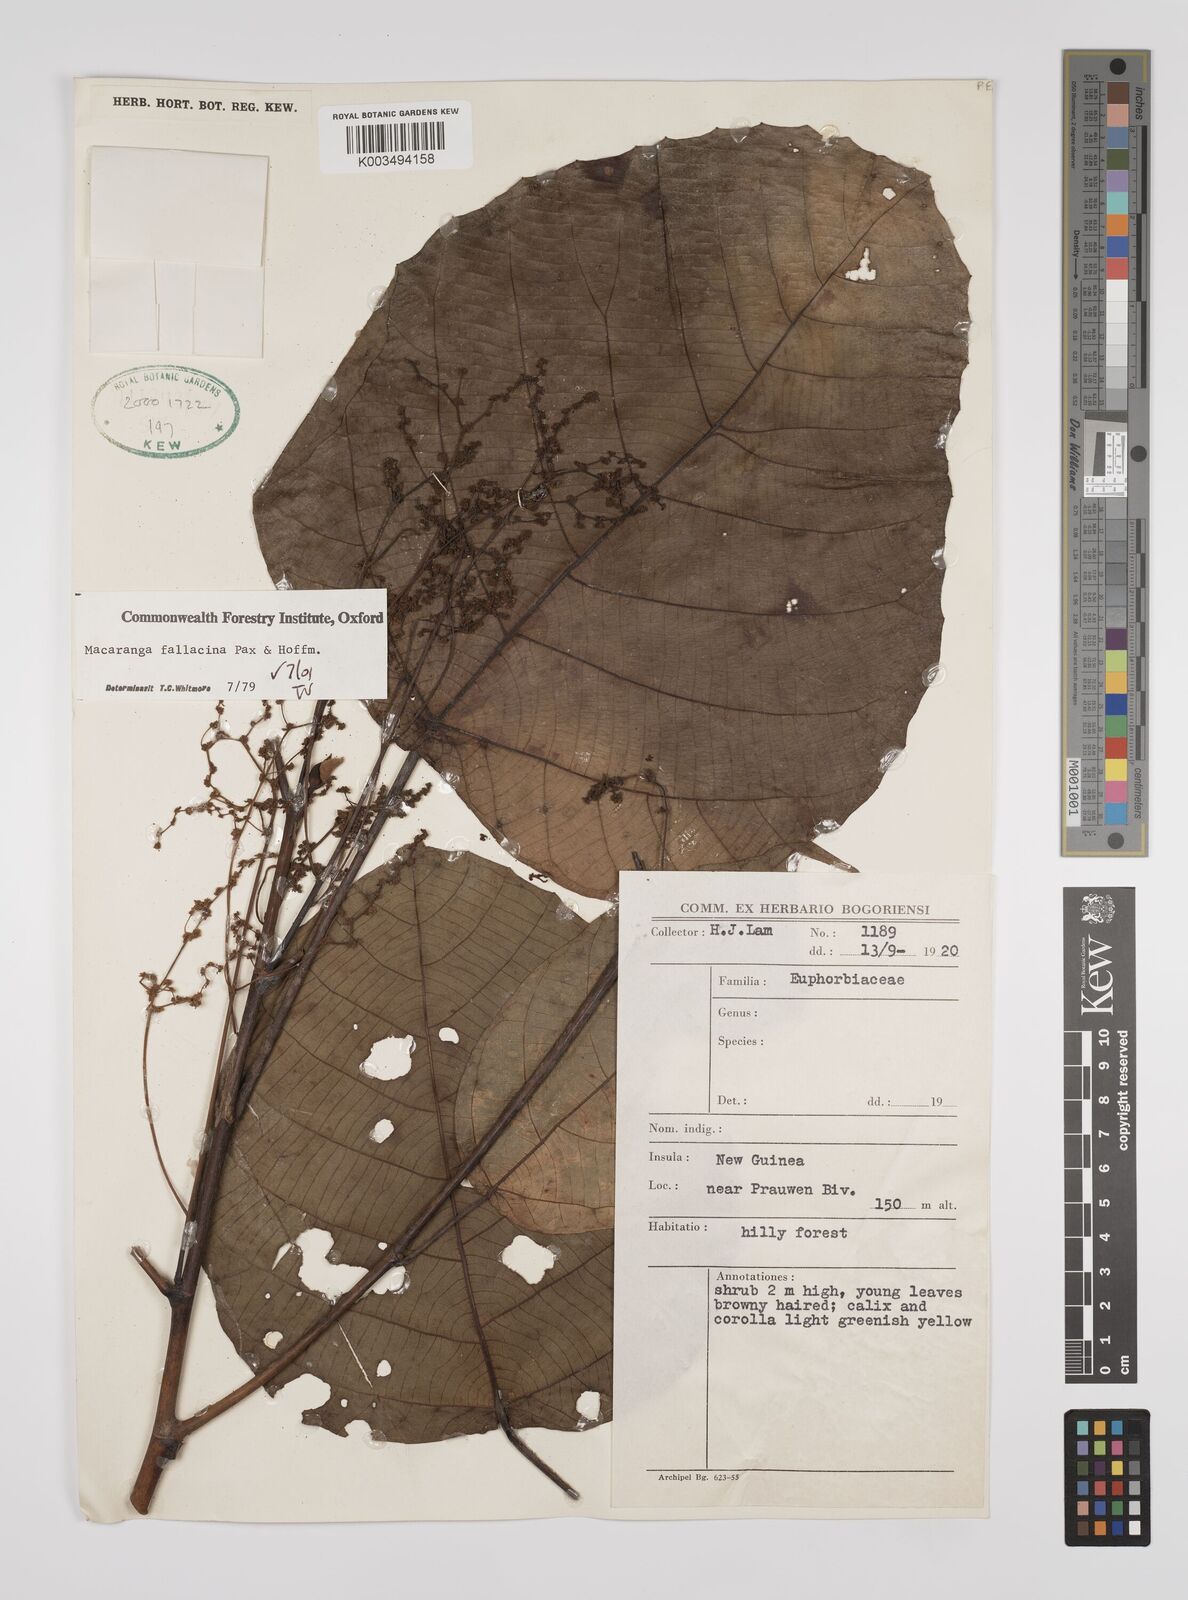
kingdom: Plantae
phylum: Tracheophyta
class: Magnoliopsida
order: Malpighiales
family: Euphorbiaceae
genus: Macaranga
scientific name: Macaranga fallacina
